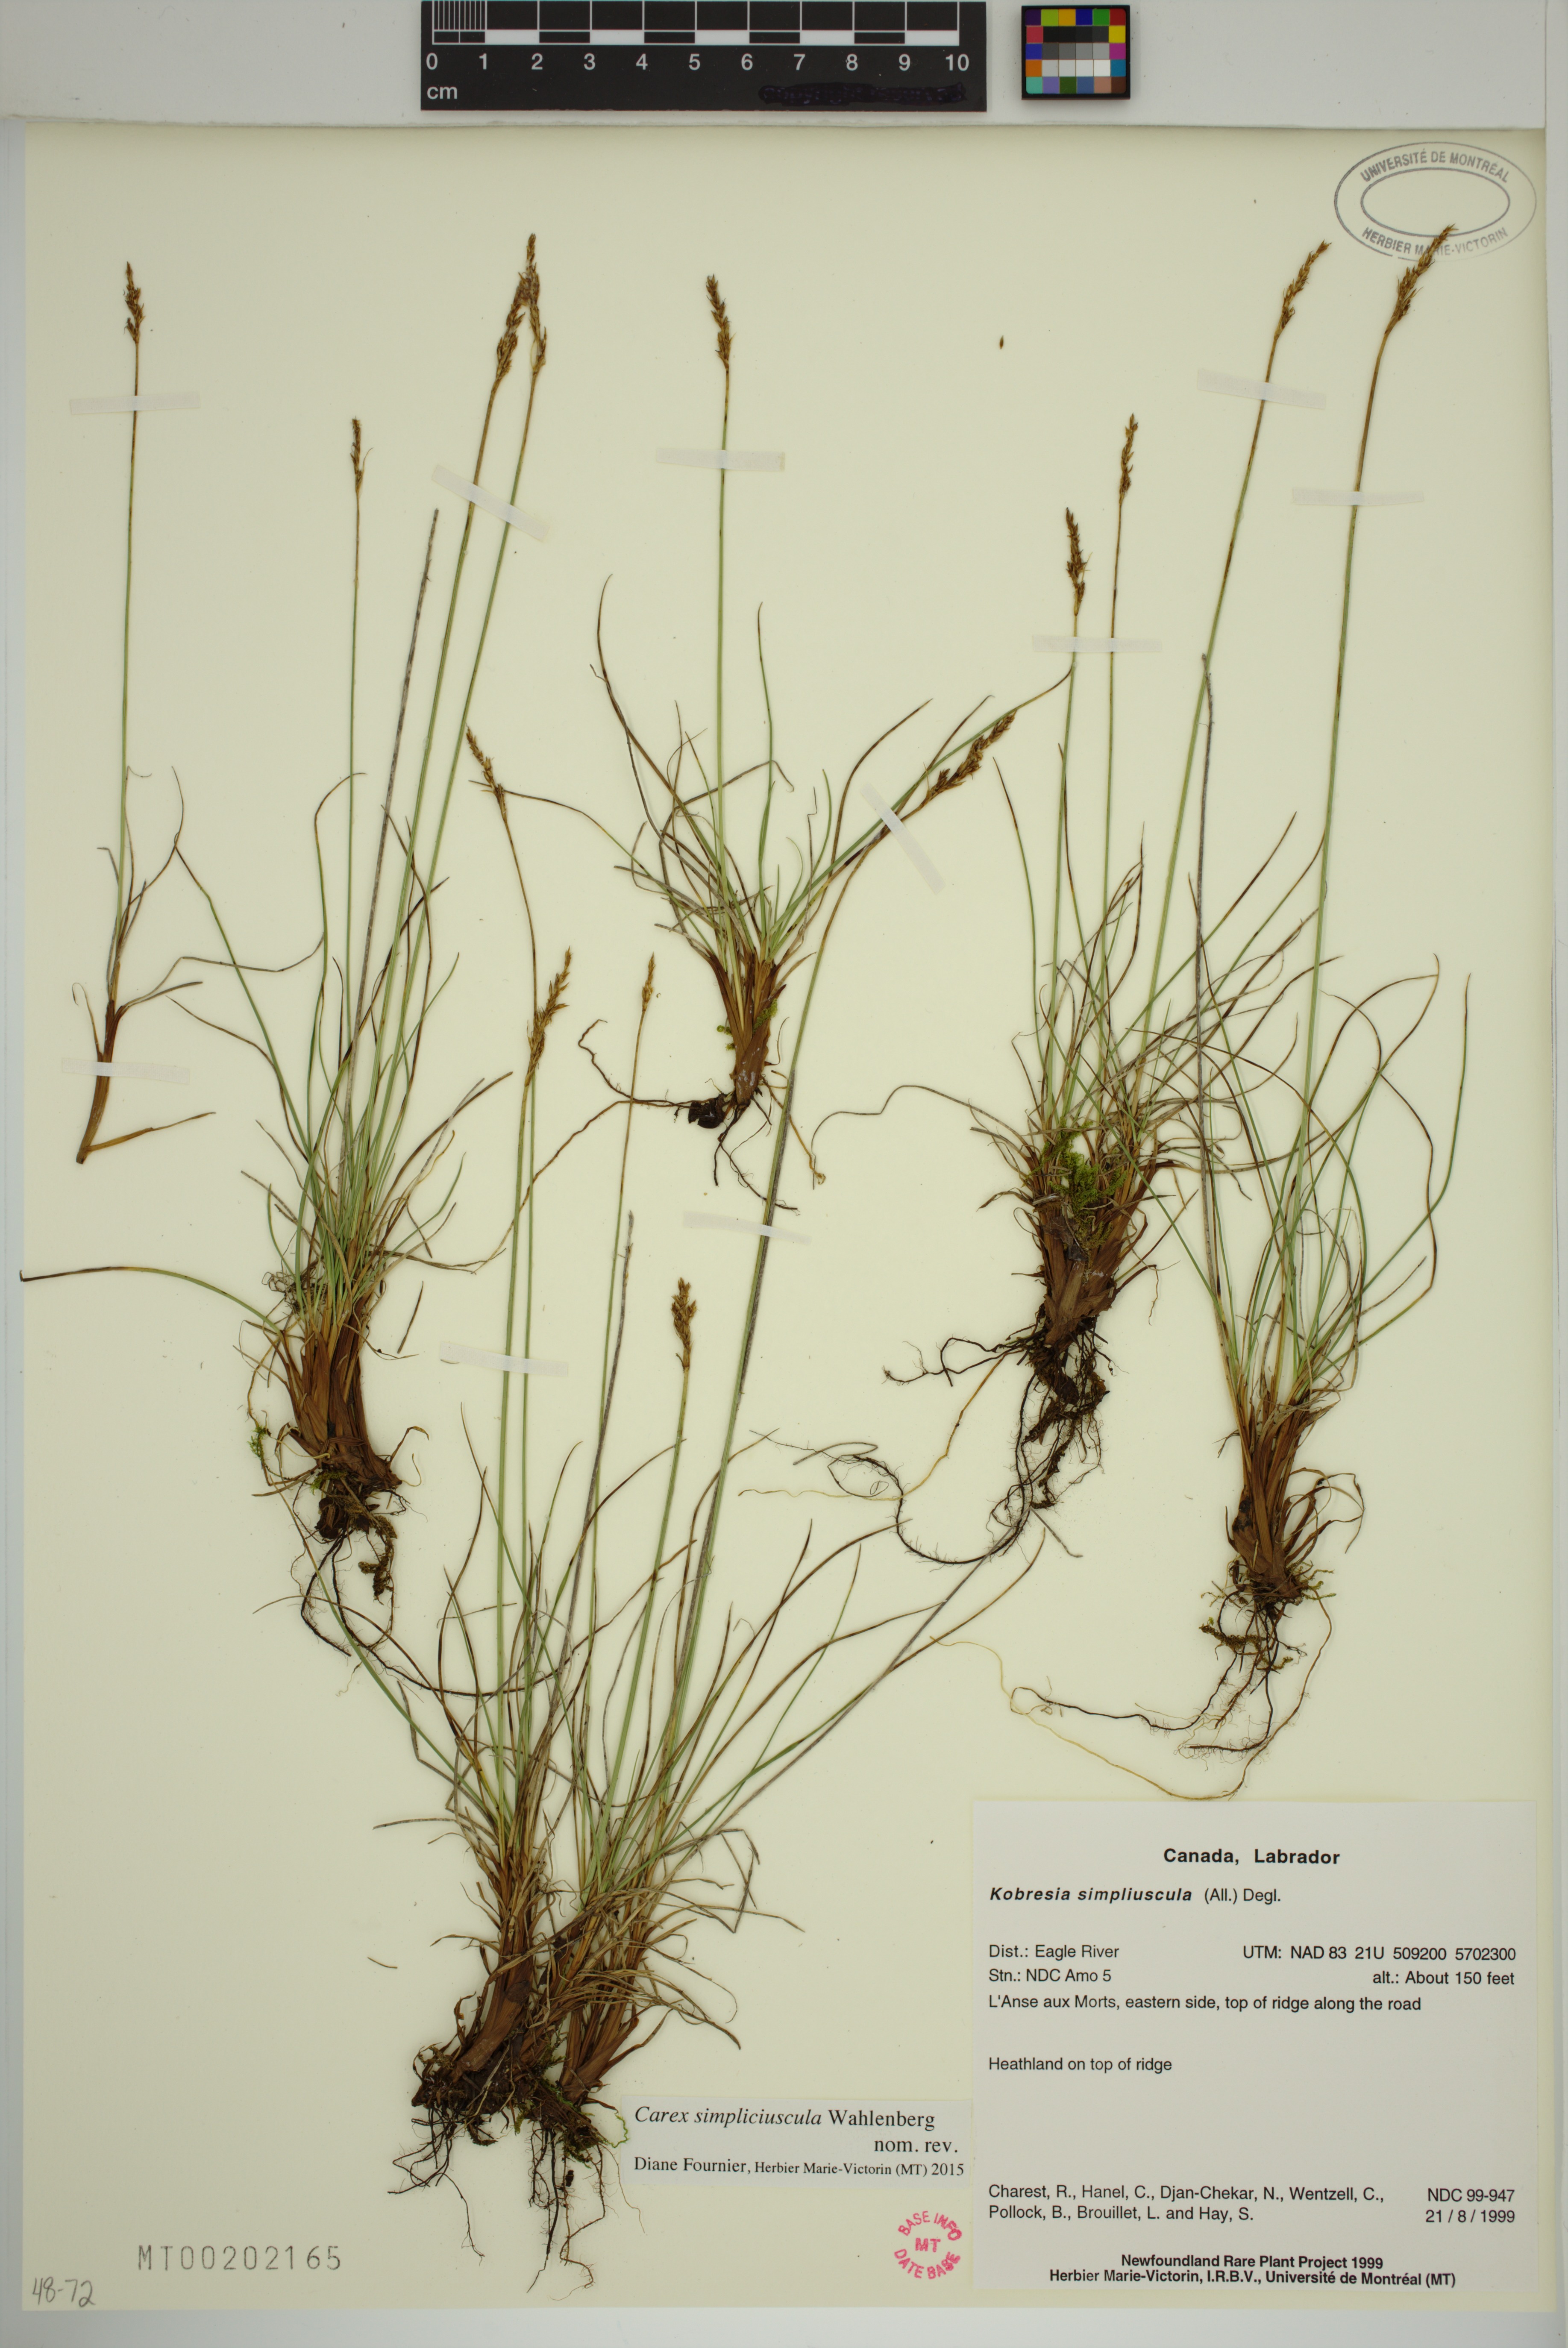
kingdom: Plantae
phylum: Tracheophyta
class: Liliopsida
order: Poales
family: Cyperaceae
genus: Carex
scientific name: Carex simpliciuscula
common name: Simple bog sedge
